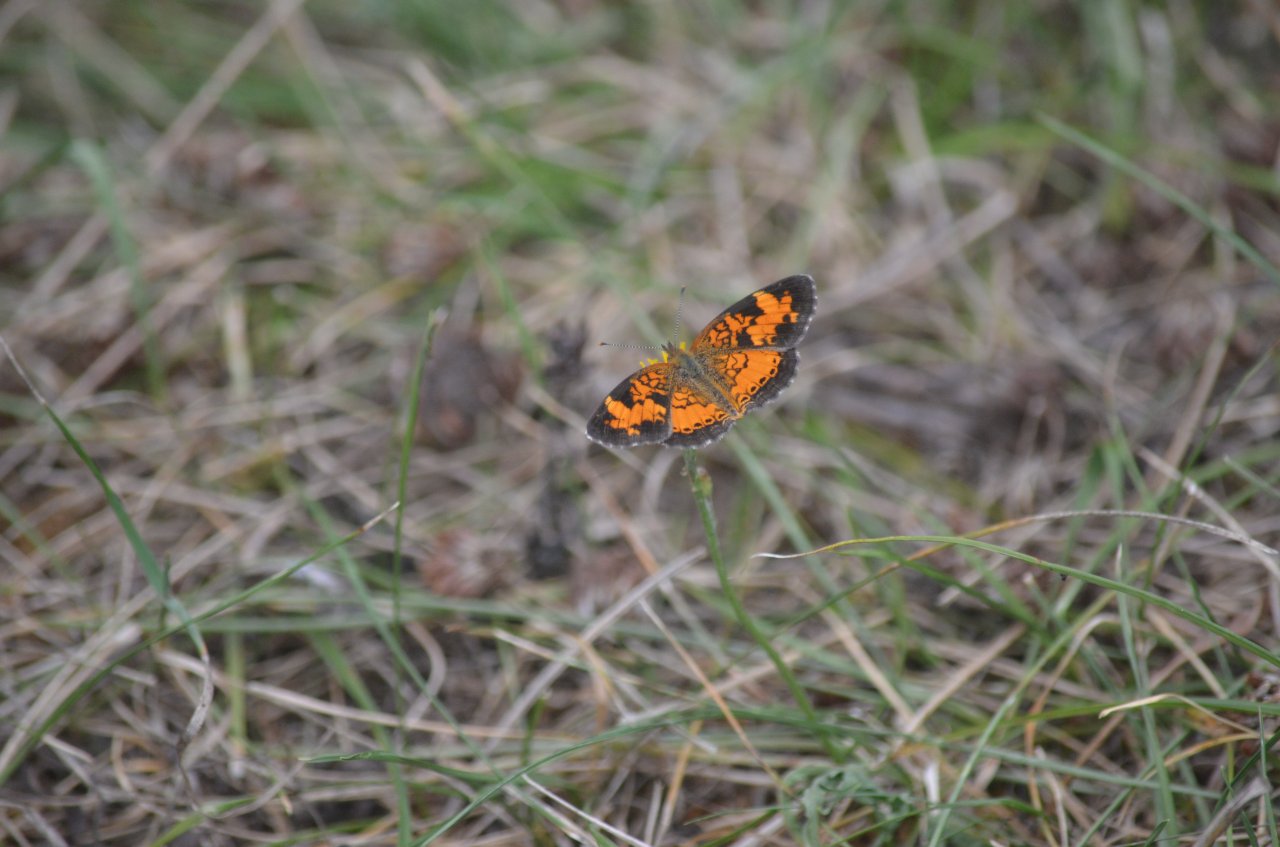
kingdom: Animalia
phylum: Arthropoda
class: Insecta
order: Lepidoptera
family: Nymphalidae
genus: Phyciodes
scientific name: Phyciodes tharos
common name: Northern Crescent
